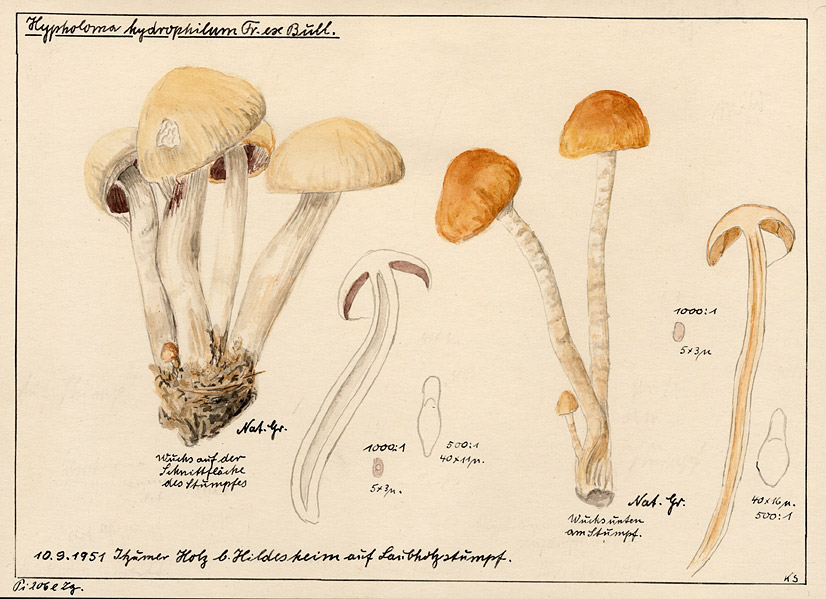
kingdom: Fungi
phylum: Basidiomycota
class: Agaricomycetes
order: Agaricales
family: Psathyrellaceae
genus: Psathyrella
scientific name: Psathyrella piluliformis
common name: Common stump brittlestem
